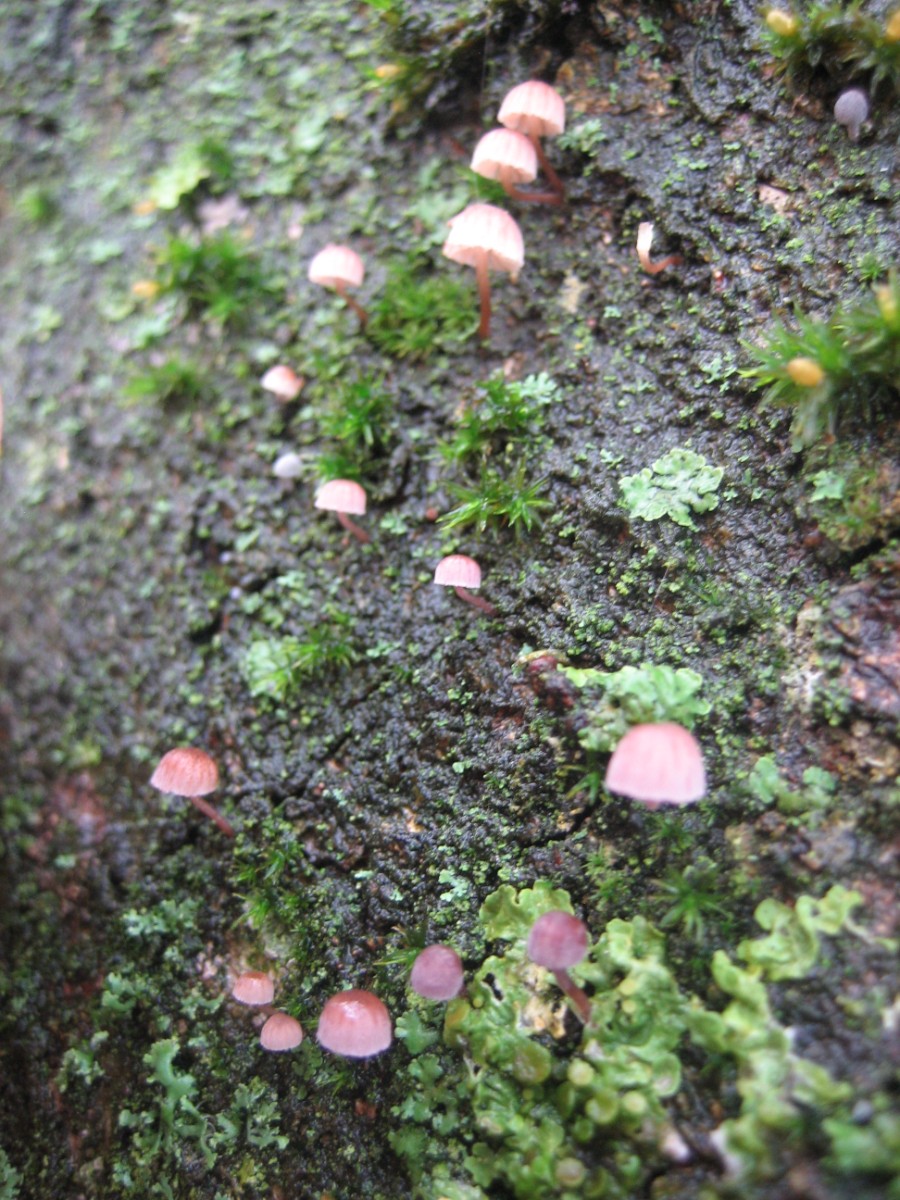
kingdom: Fungi
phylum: Basidiomycota
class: Agaricomycetes
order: Agaricales
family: Mycenaceae
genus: Mycena
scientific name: Mycena meliigena
